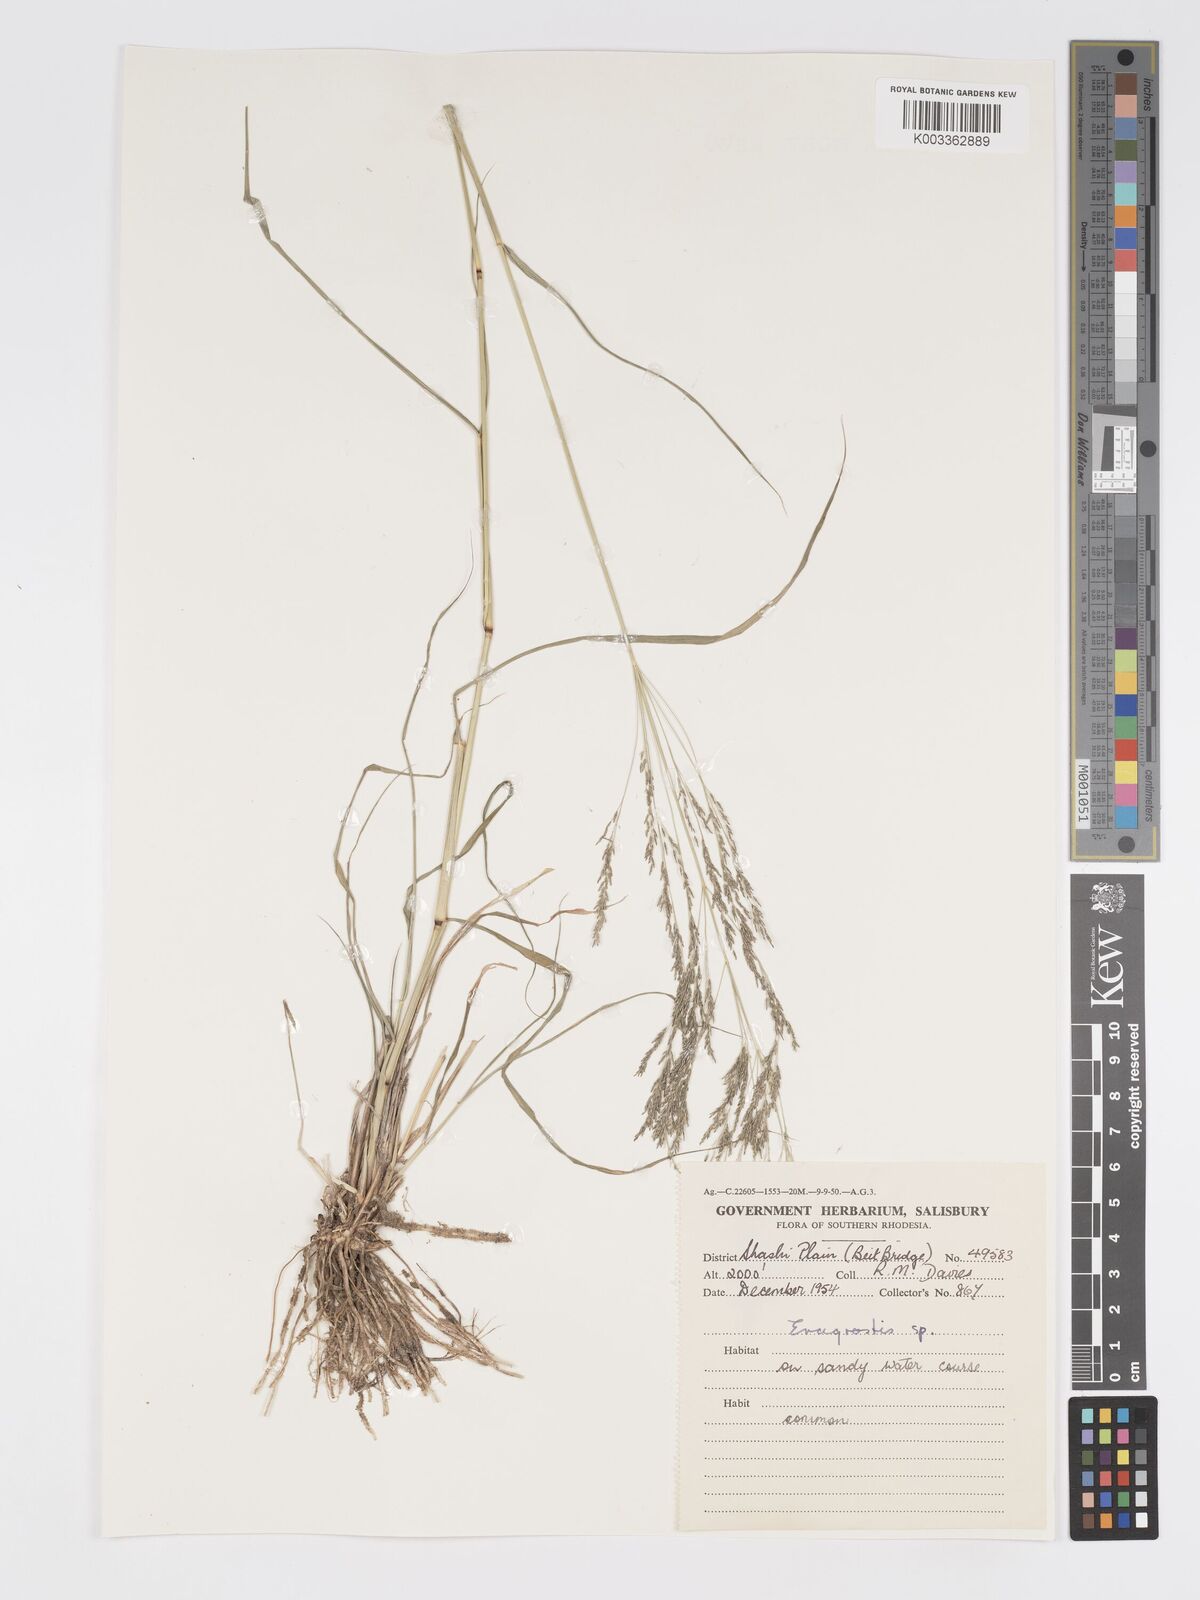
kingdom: Plantae
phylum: Tracheophyta
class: Liliopsida
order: Poales
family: Poaceae
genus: Eragrostis
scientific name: Eragrostis cylindriflora
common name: Cylinderflower lovegrass
